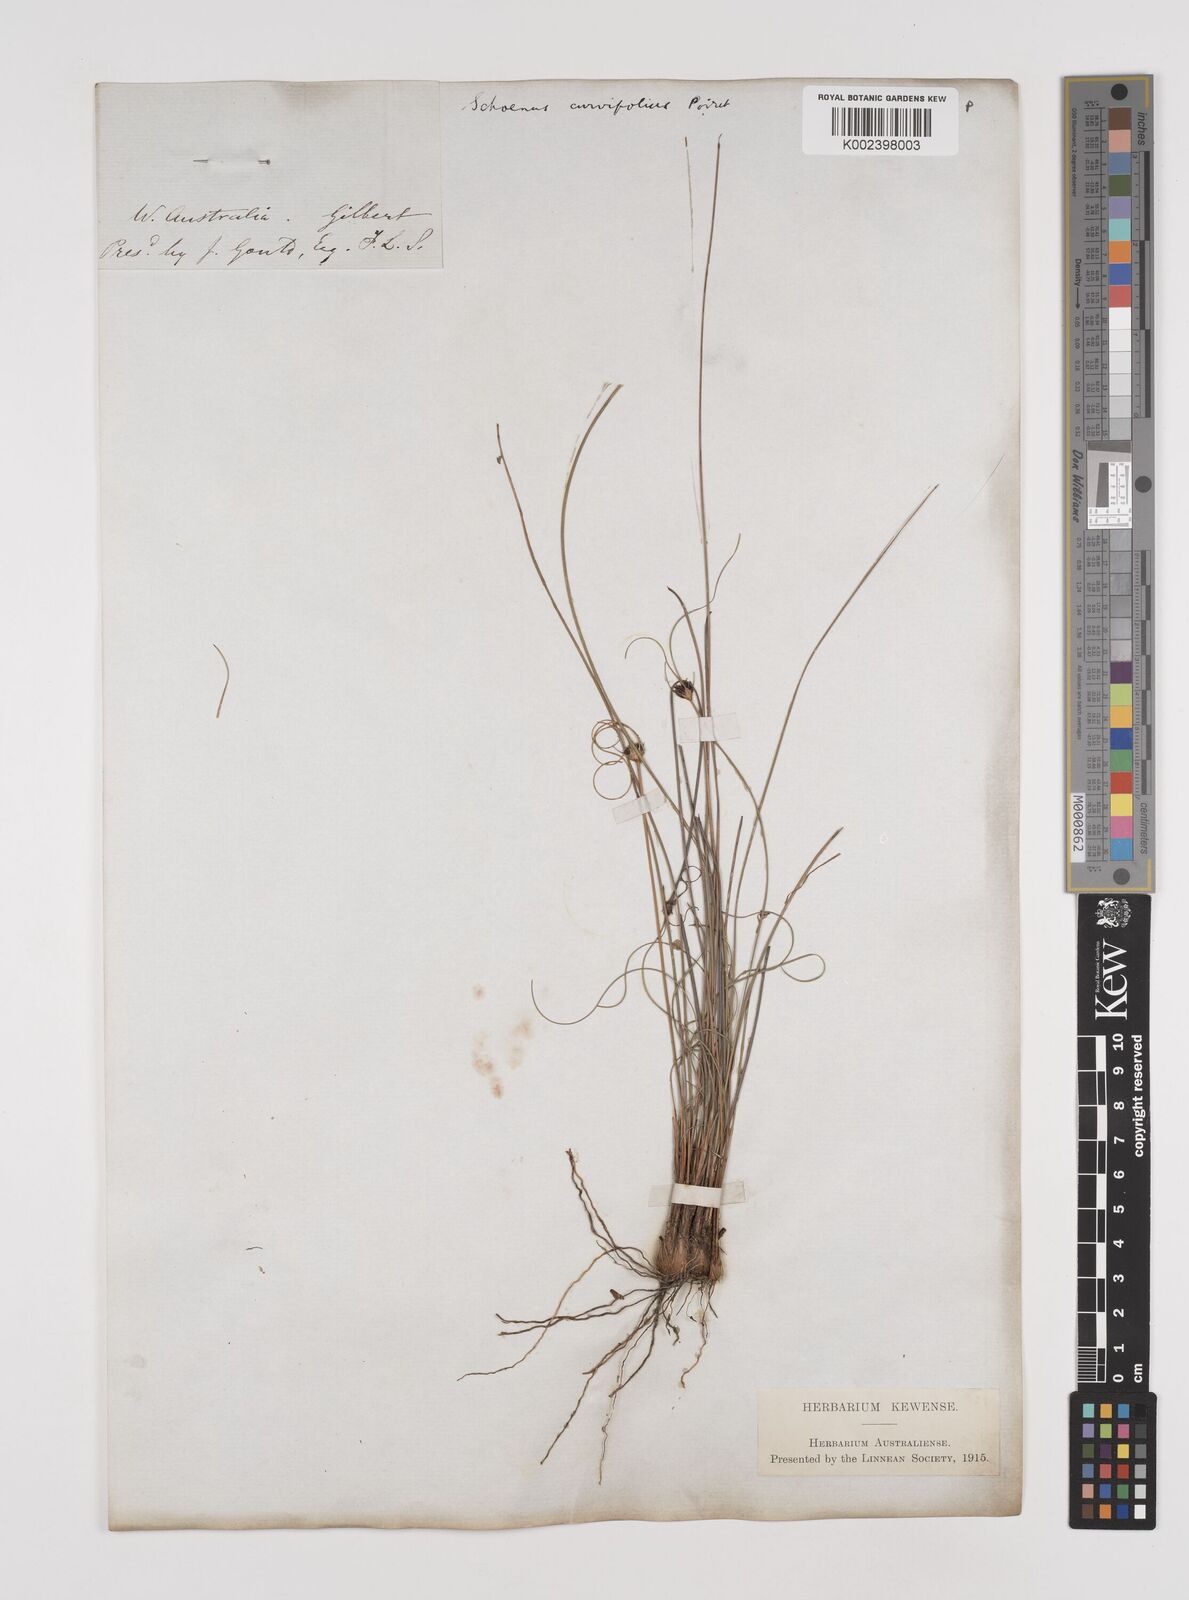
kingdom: Plantae
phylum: Tracheophyta
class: Liliopsida
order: Poales
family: Cyperaceae
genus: Schoenus
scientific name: Schoenus curvifolius
